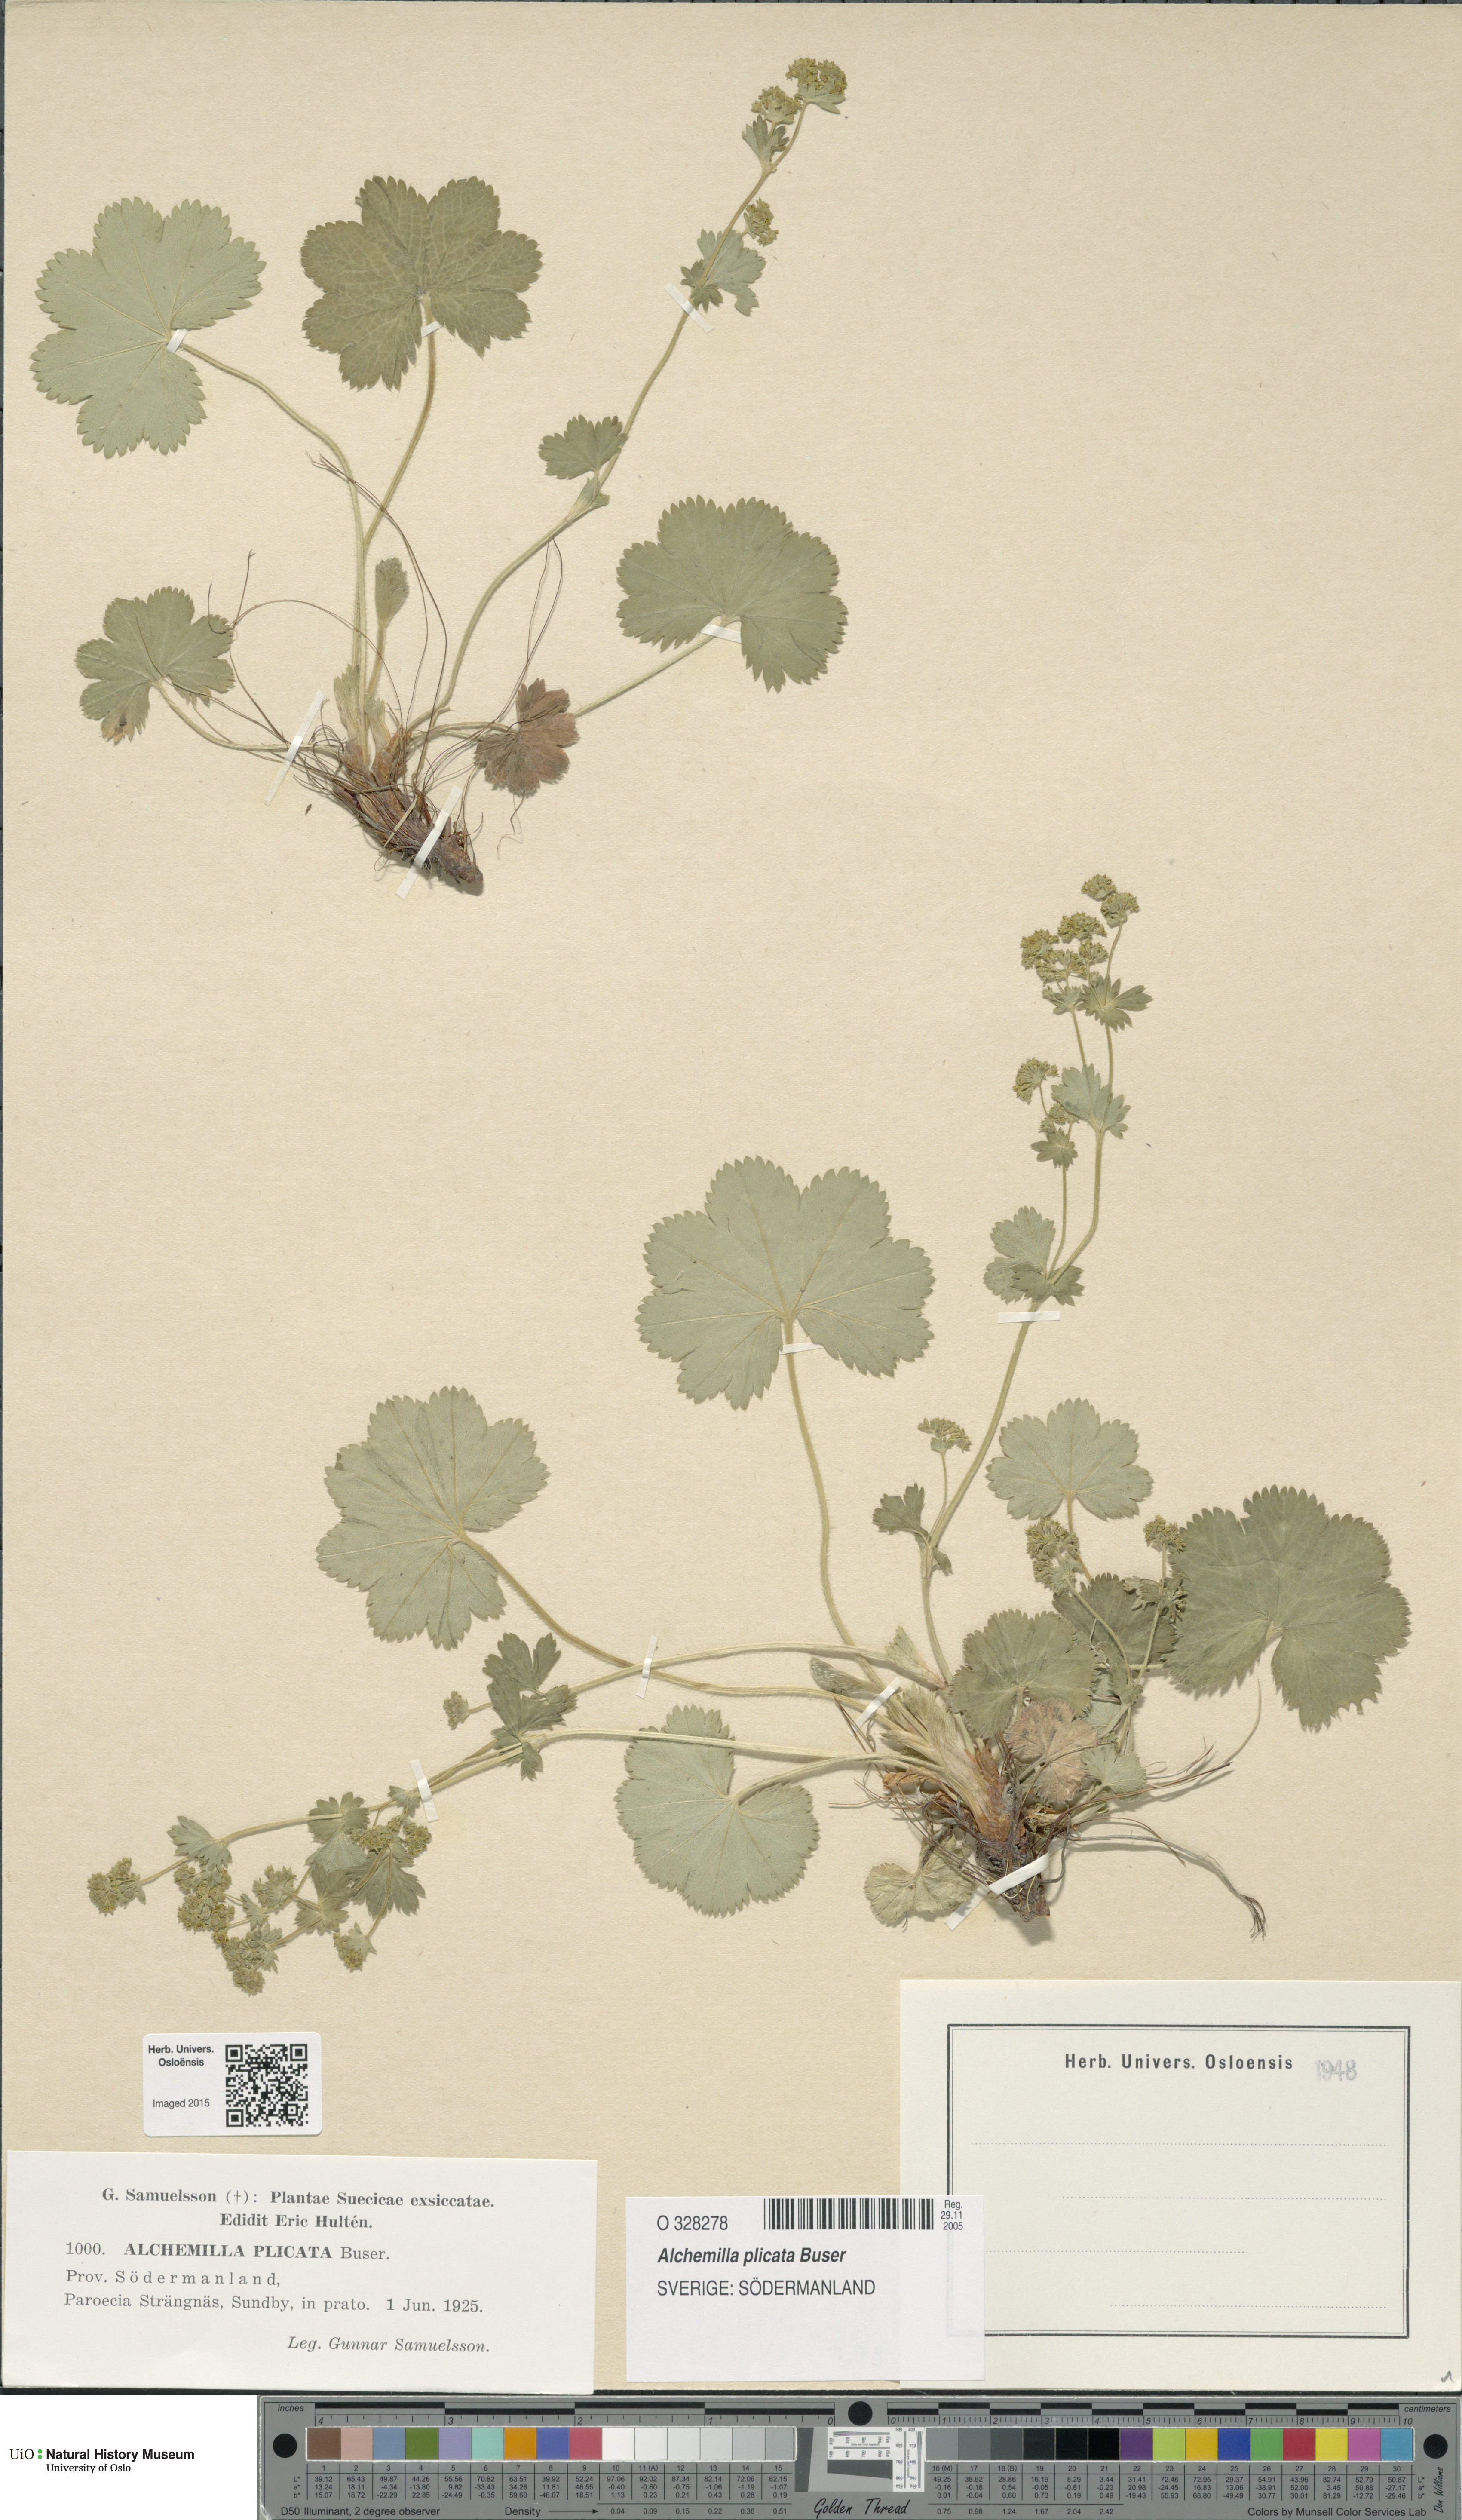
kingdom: Plantae
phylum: Tracheophyta
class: Magnoliopsida
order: Rosales
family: Rosaceae
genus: Alchemilla
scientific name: Alchemilla plicata
